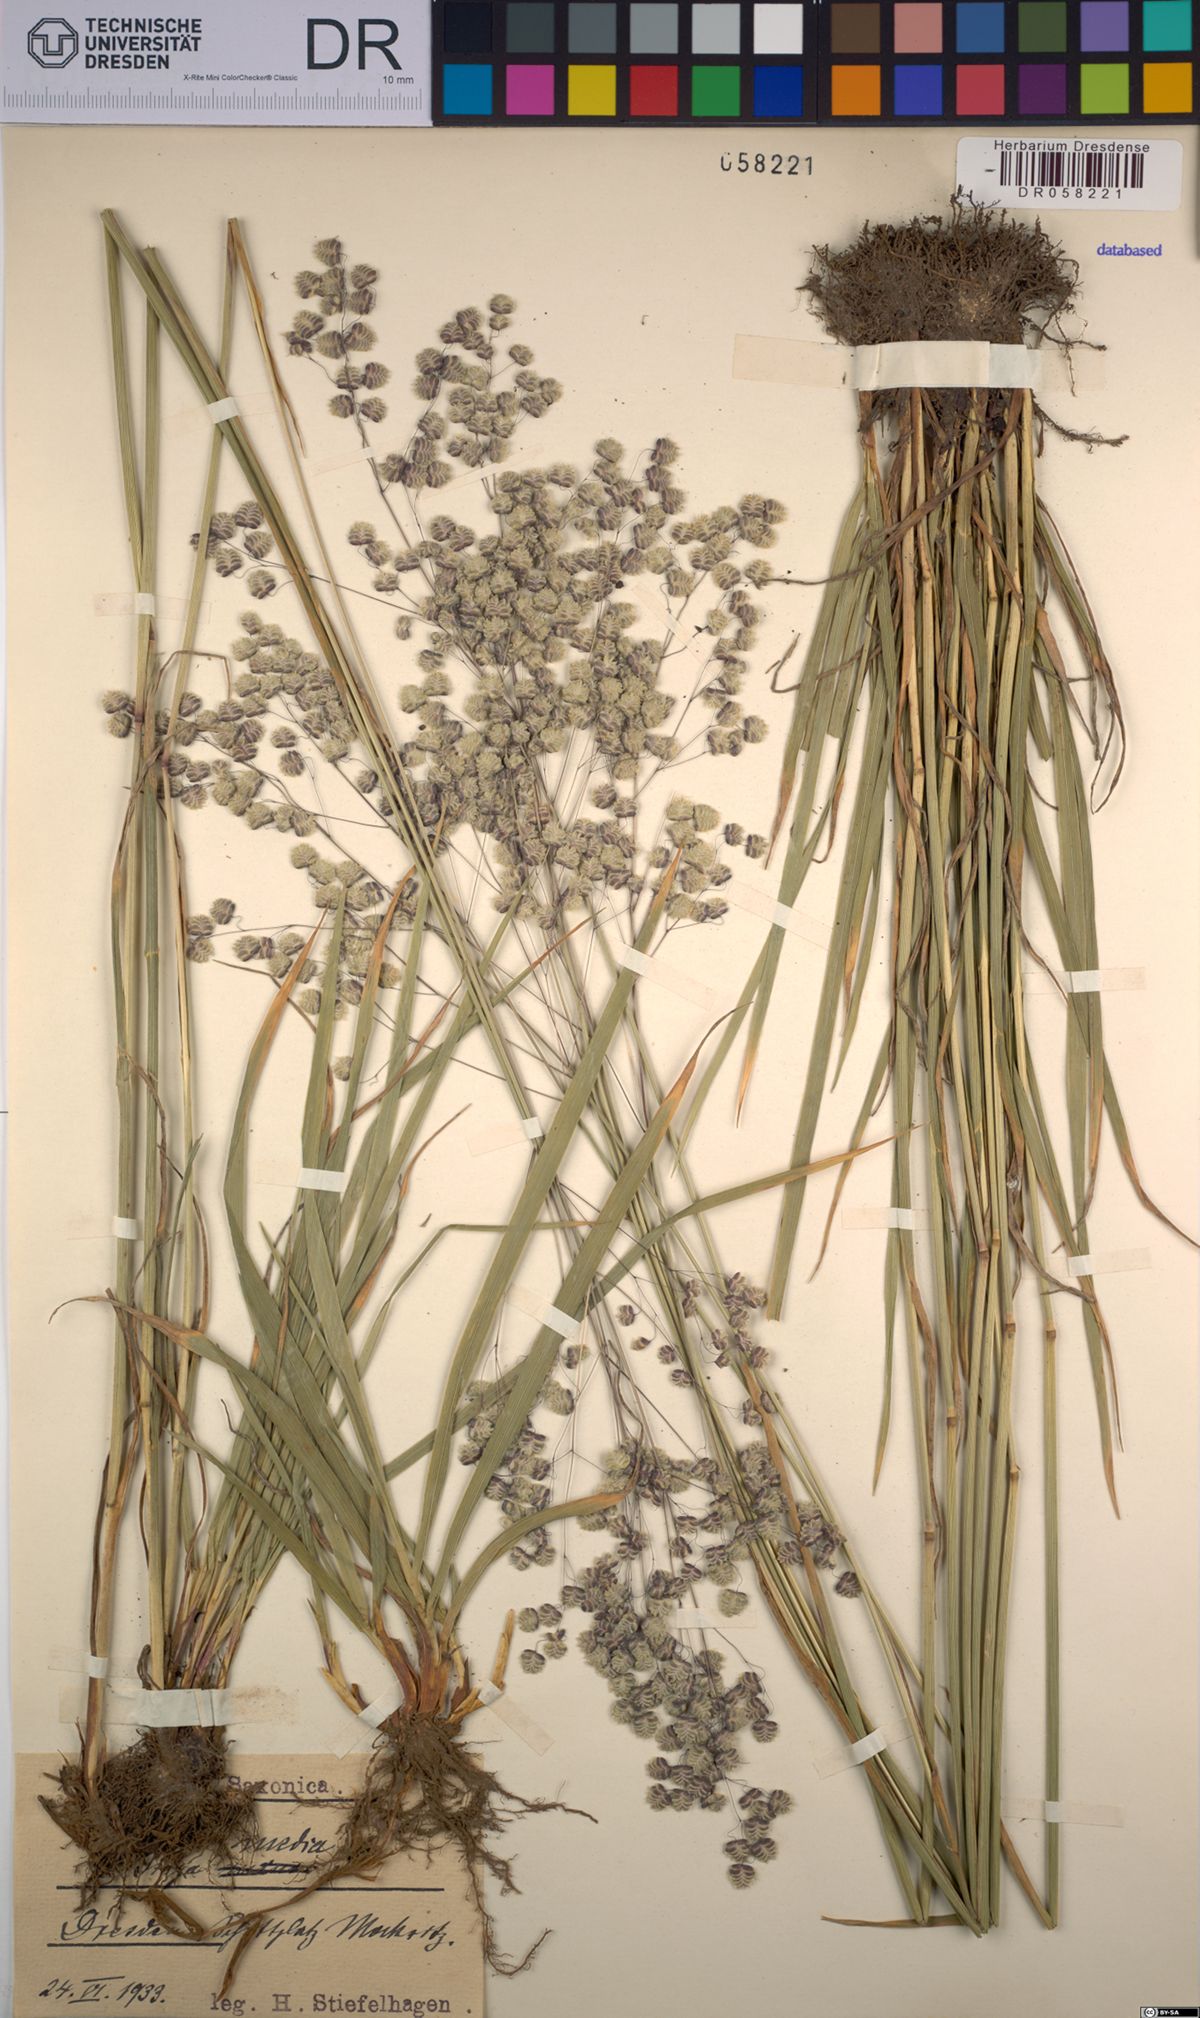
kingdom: Plantae
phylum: Tracheophyta
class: Liliopsida
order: Poales
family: Poaceae
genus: Briza
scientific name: Briza media
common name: Quaking grass
